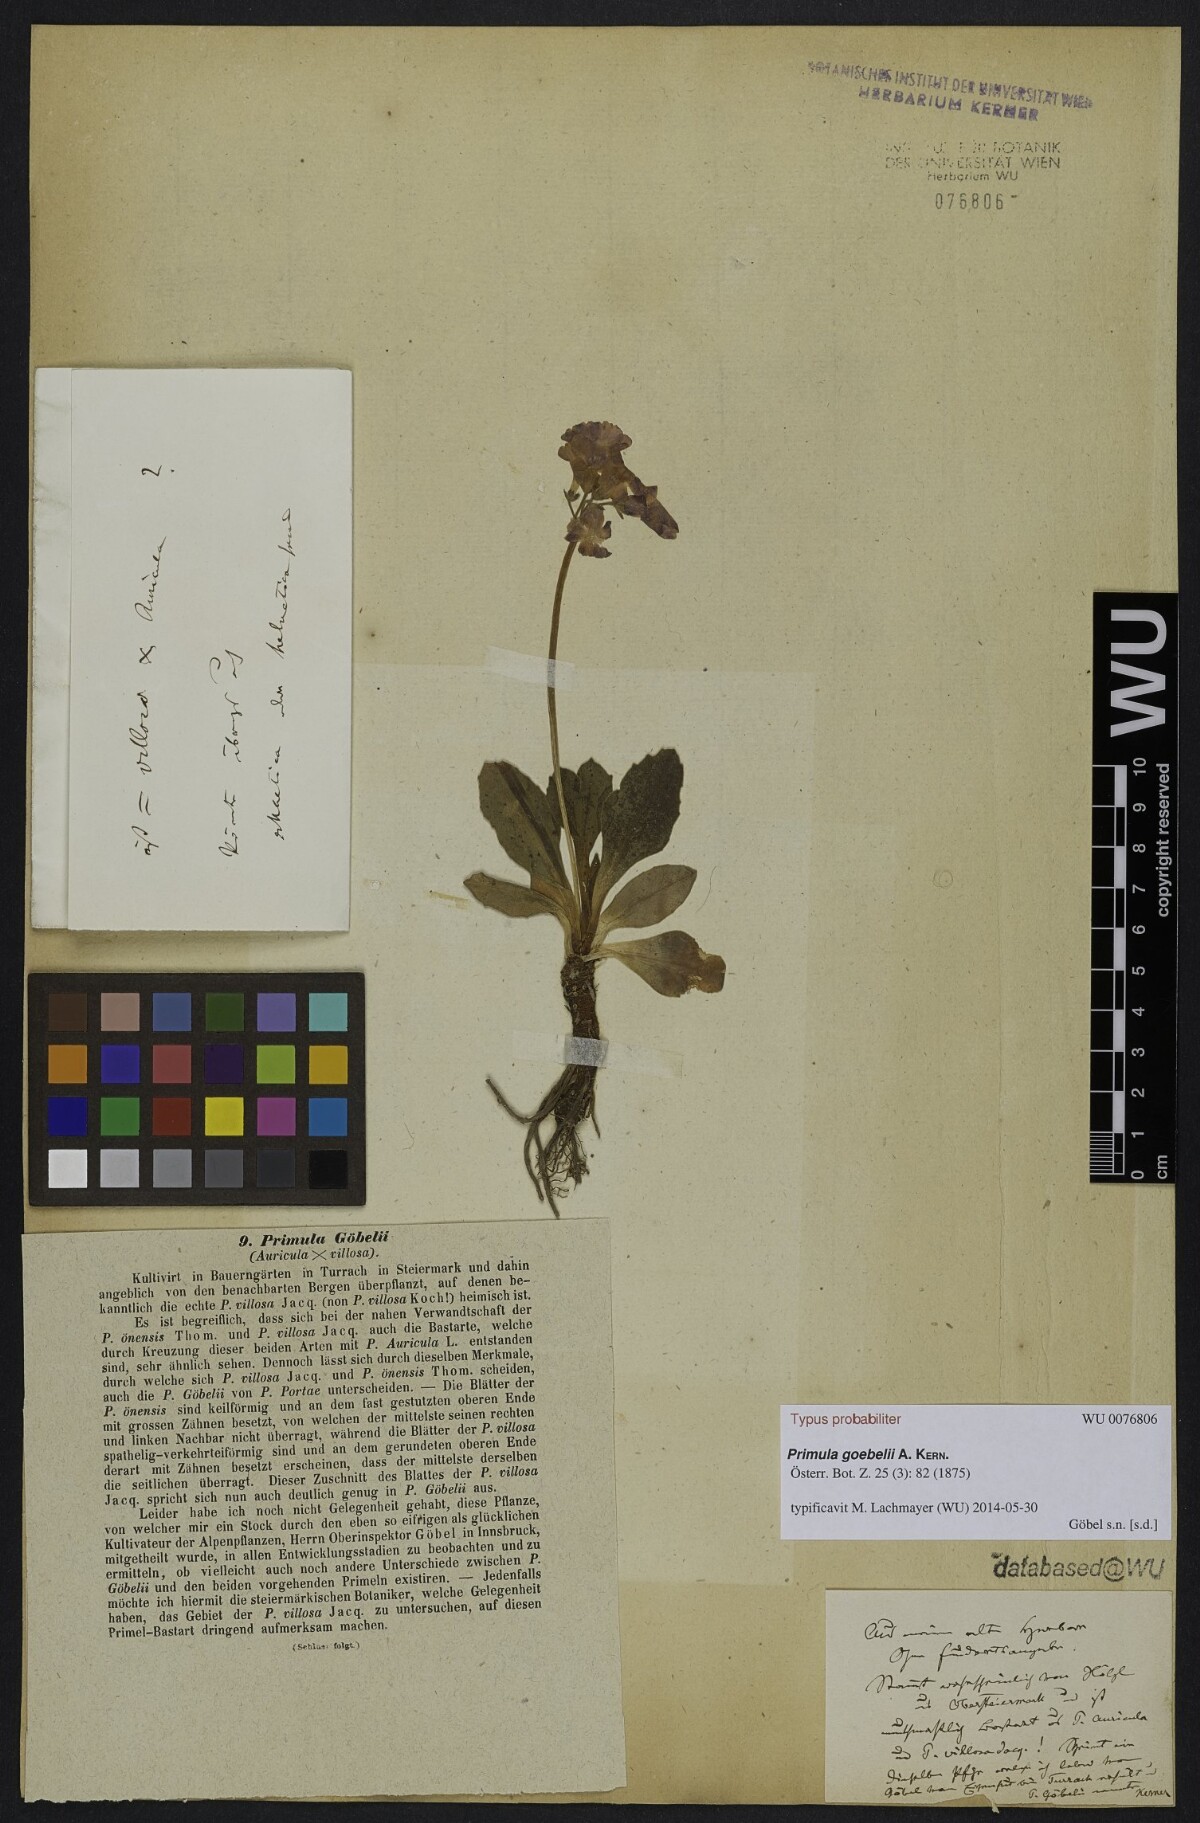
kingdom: Plantae
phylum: Tracheophyta
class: Magnoliopsida
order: Ericales
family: Primulaceae
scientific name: Primulaceae
